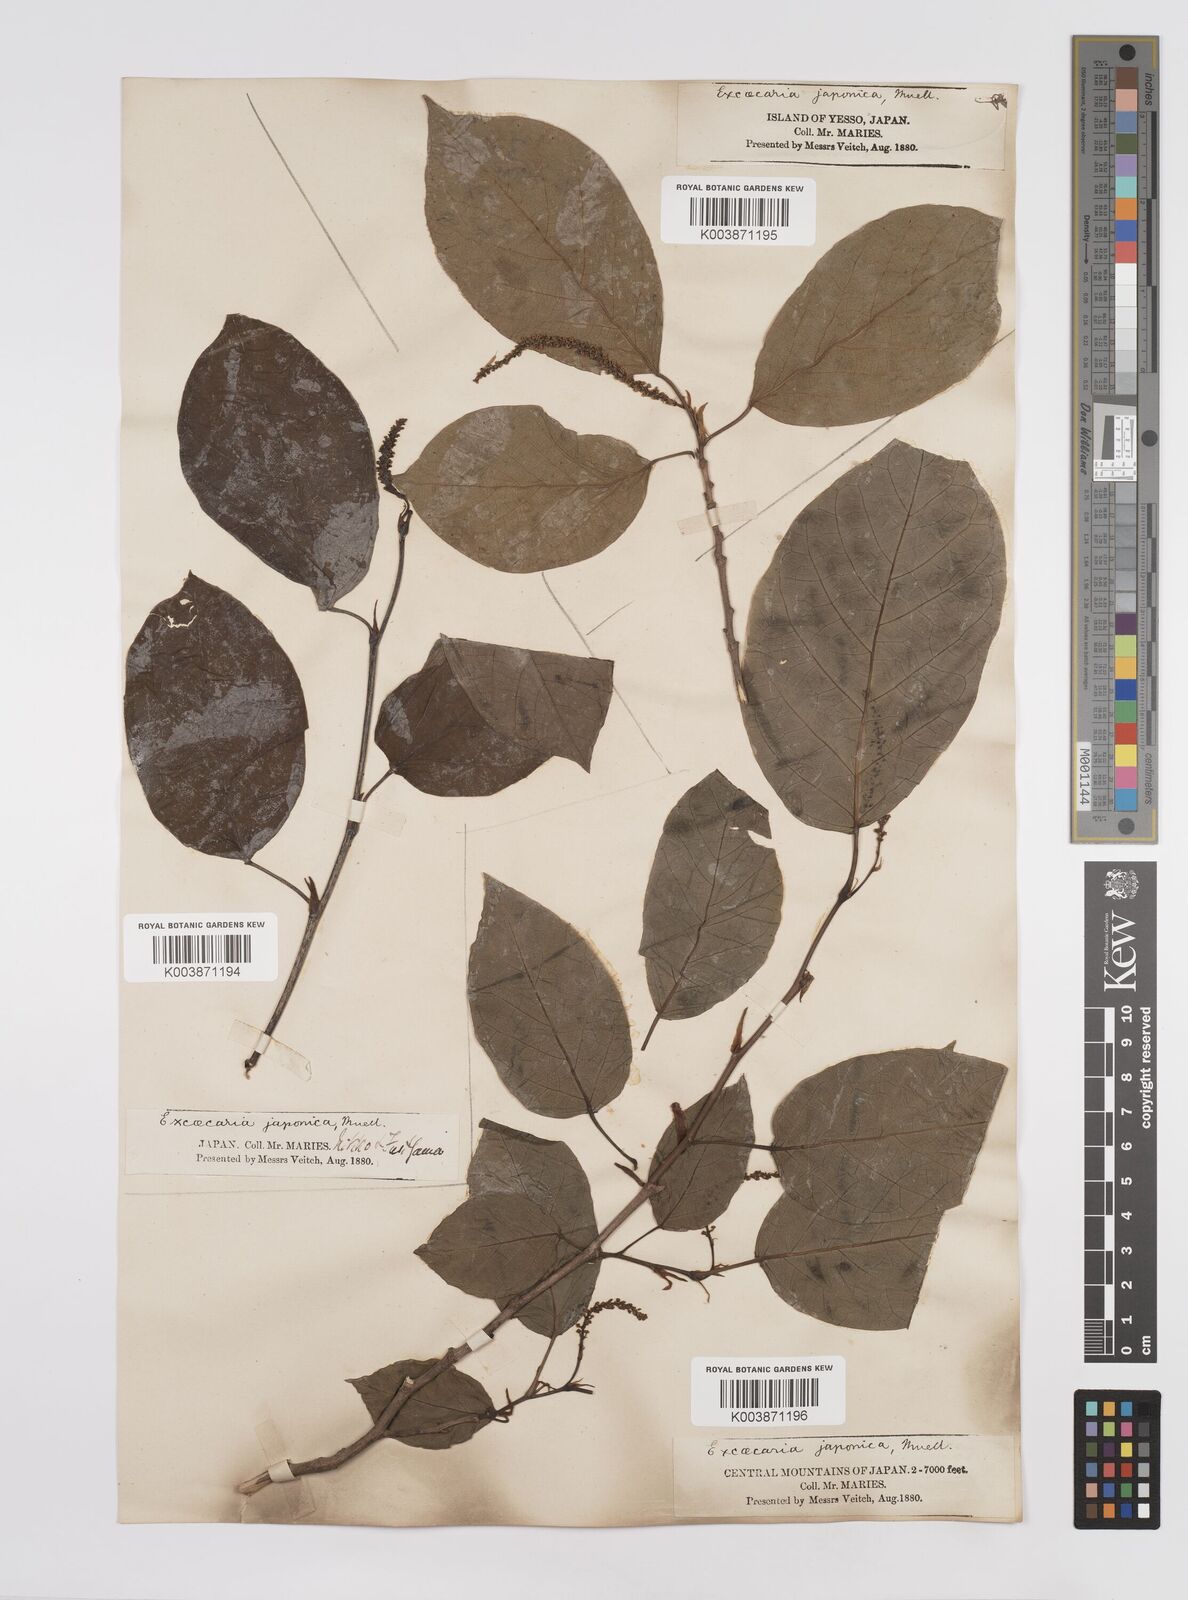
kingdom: Plantae
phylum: Tracheophyta
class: Magnoliopsida
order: Malpighiales
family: Euphorbiaceae
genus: Neoshirakia
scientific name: Neoshirakia japonica
